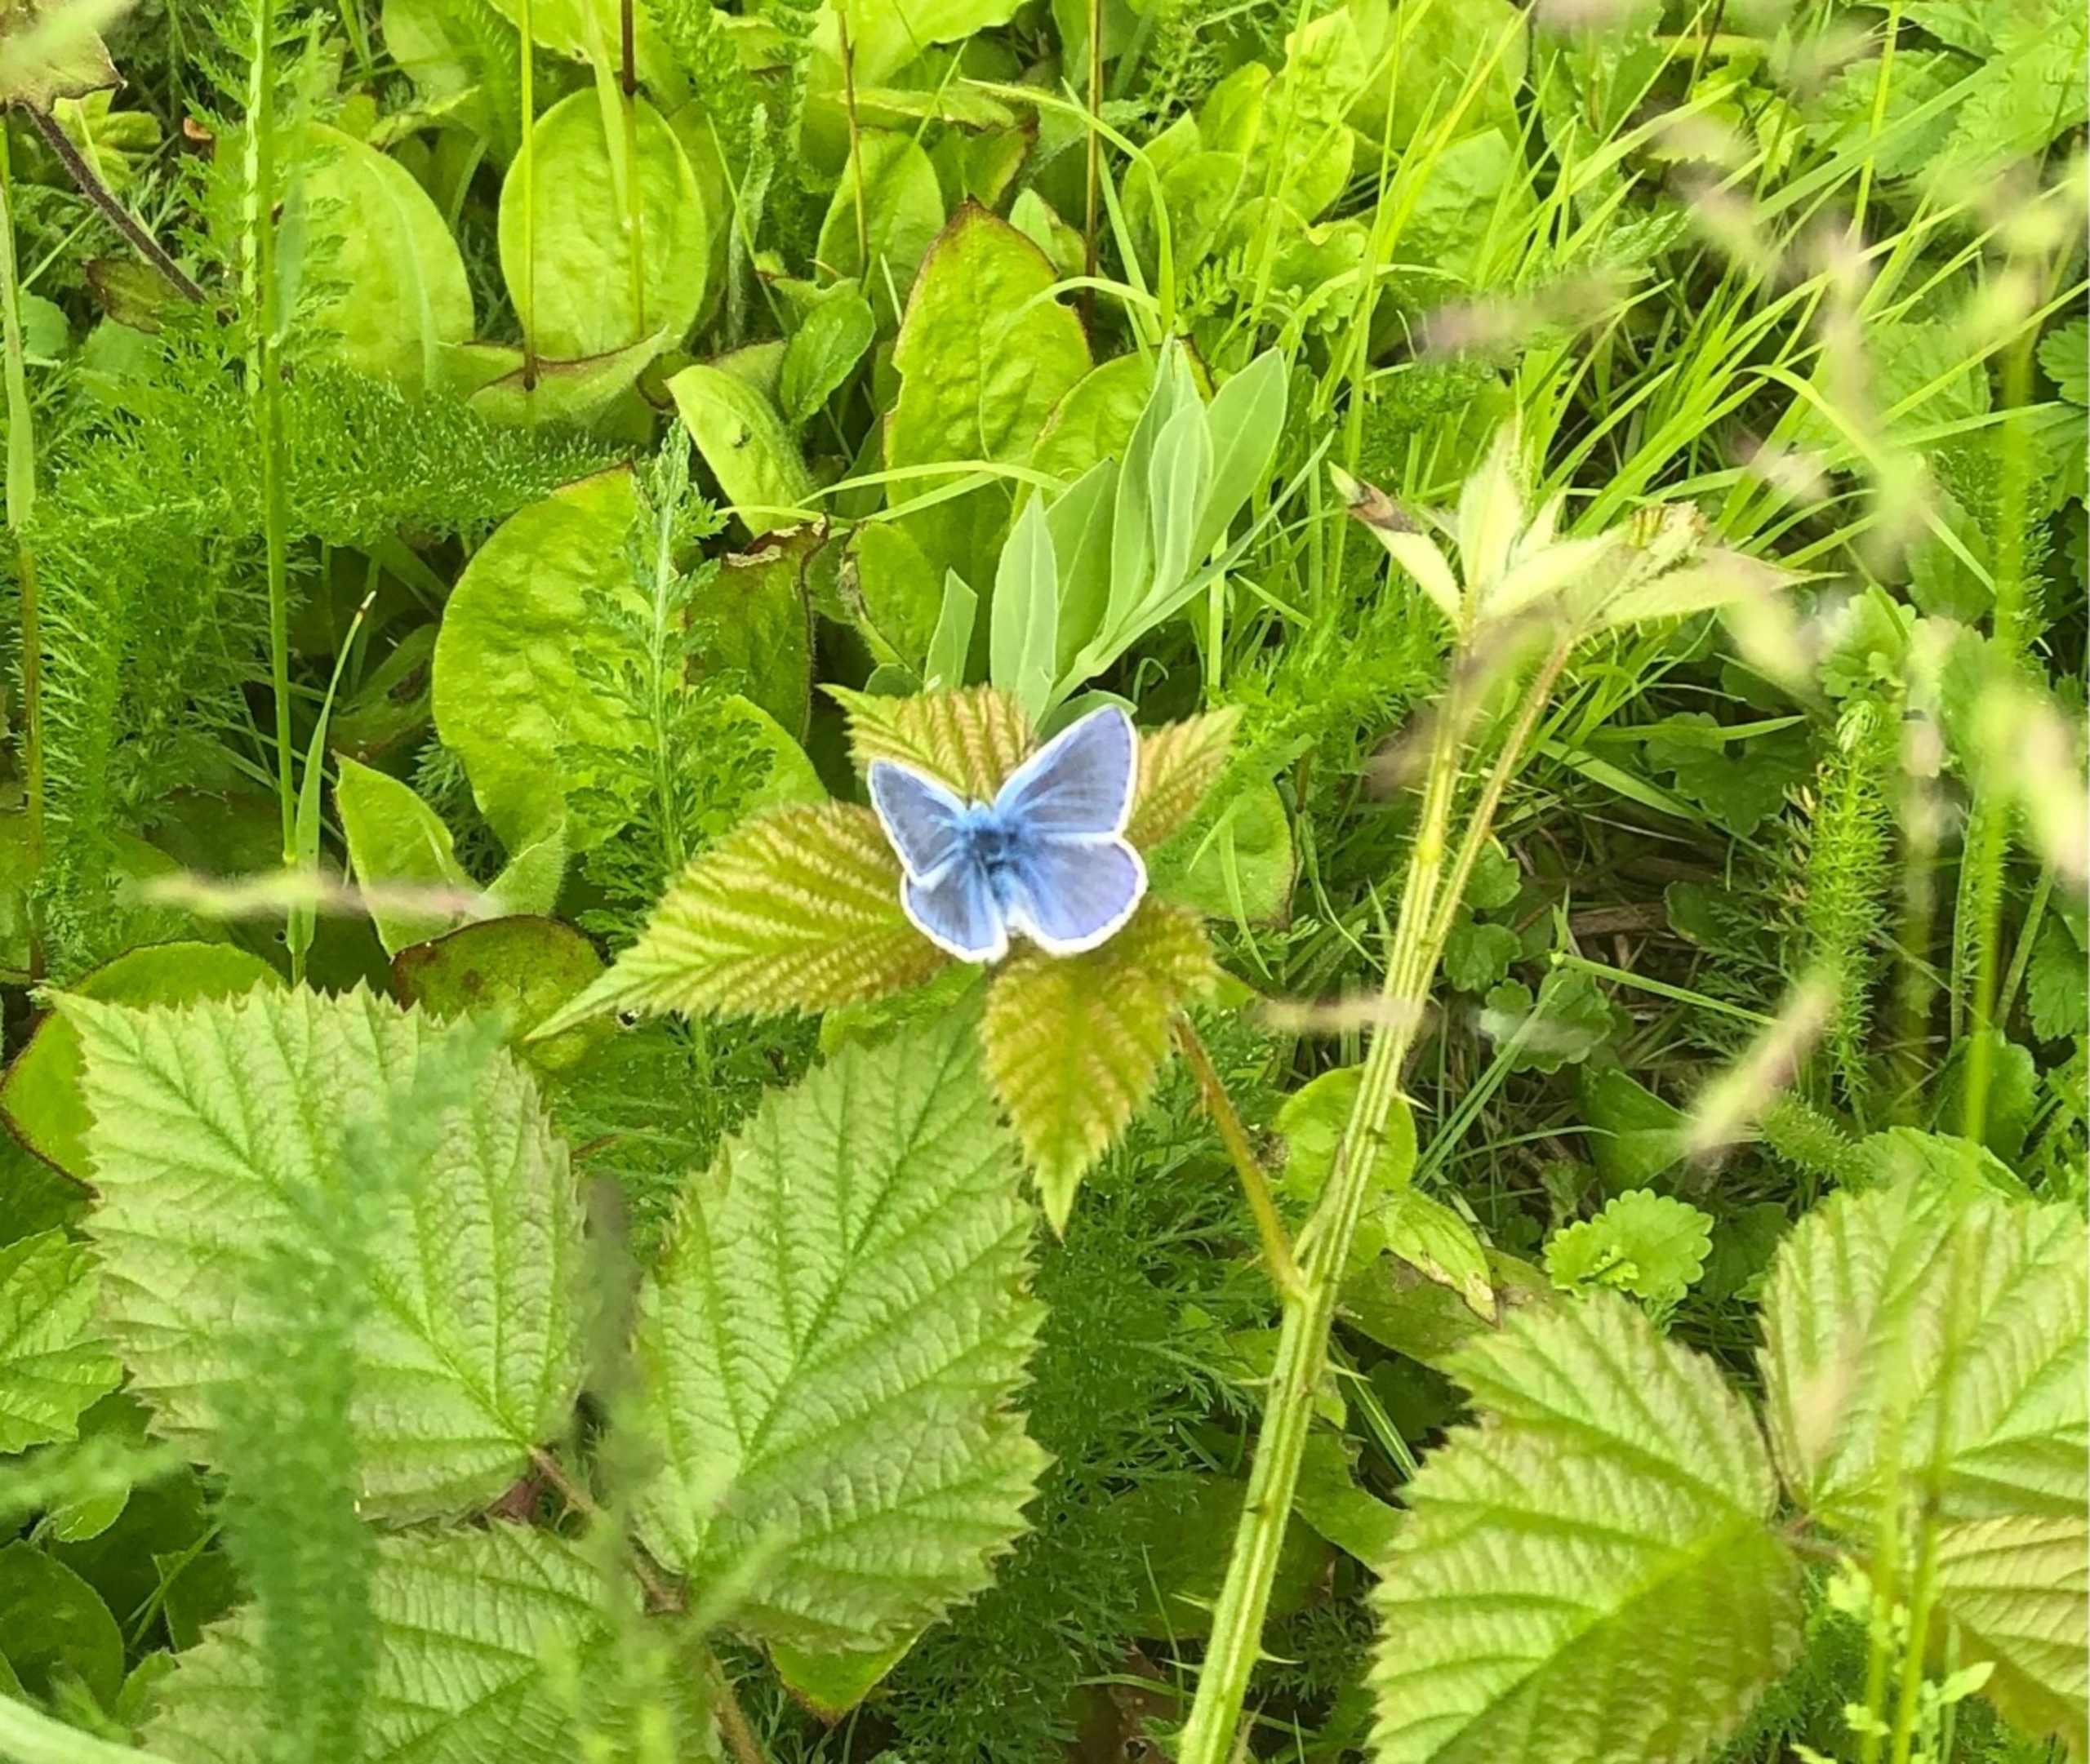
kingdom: Animalia
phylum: Arthropoda
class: Insecta
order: Lepidoptera
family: Lycaenidae
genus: Polyommatus
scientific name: Polyommatus icarus
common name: Almindelig blåfugl
